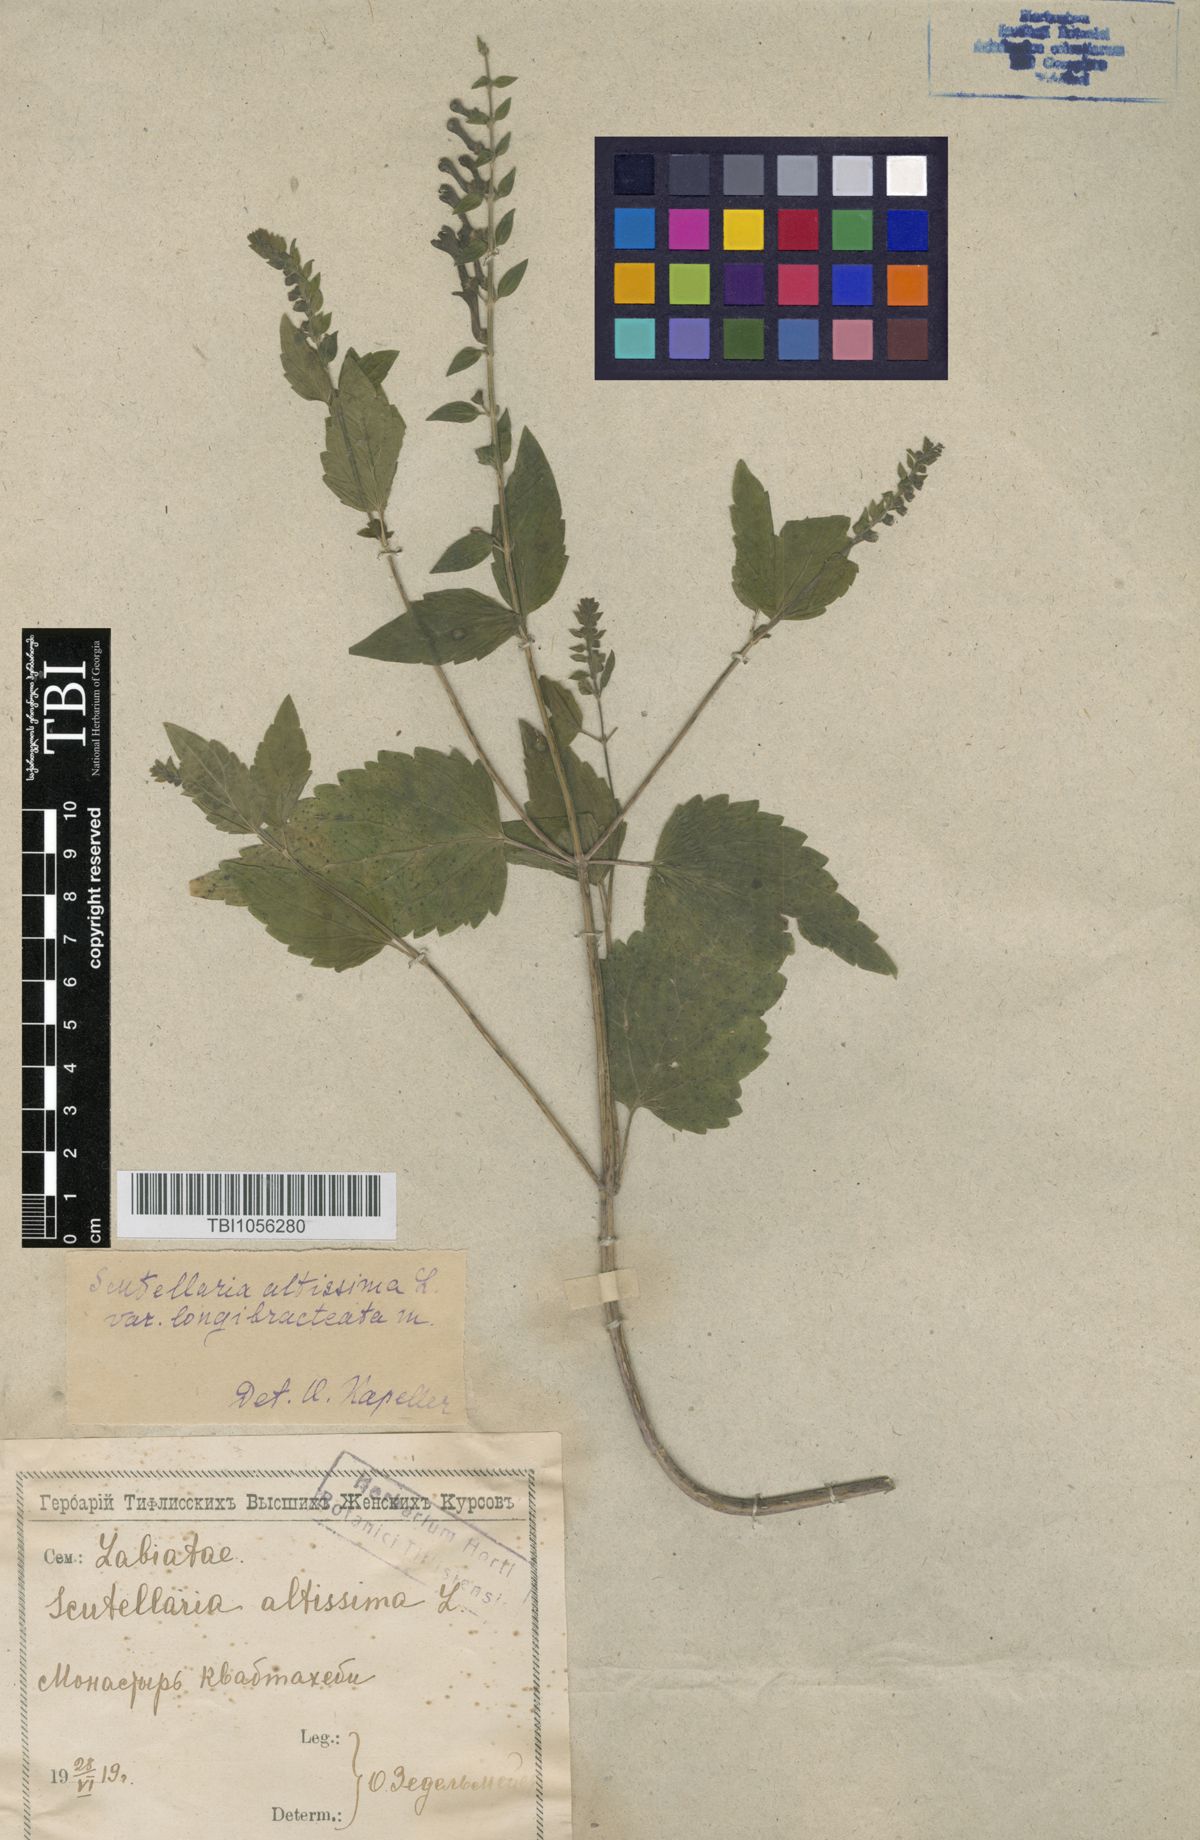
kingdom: Plantae
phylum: Tracheophyta
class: Magnoliopsida
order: Lamiales
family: Lamiaceae
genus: Scutellaria
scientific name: Scutellaria altissima
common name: Somerset skullcap
